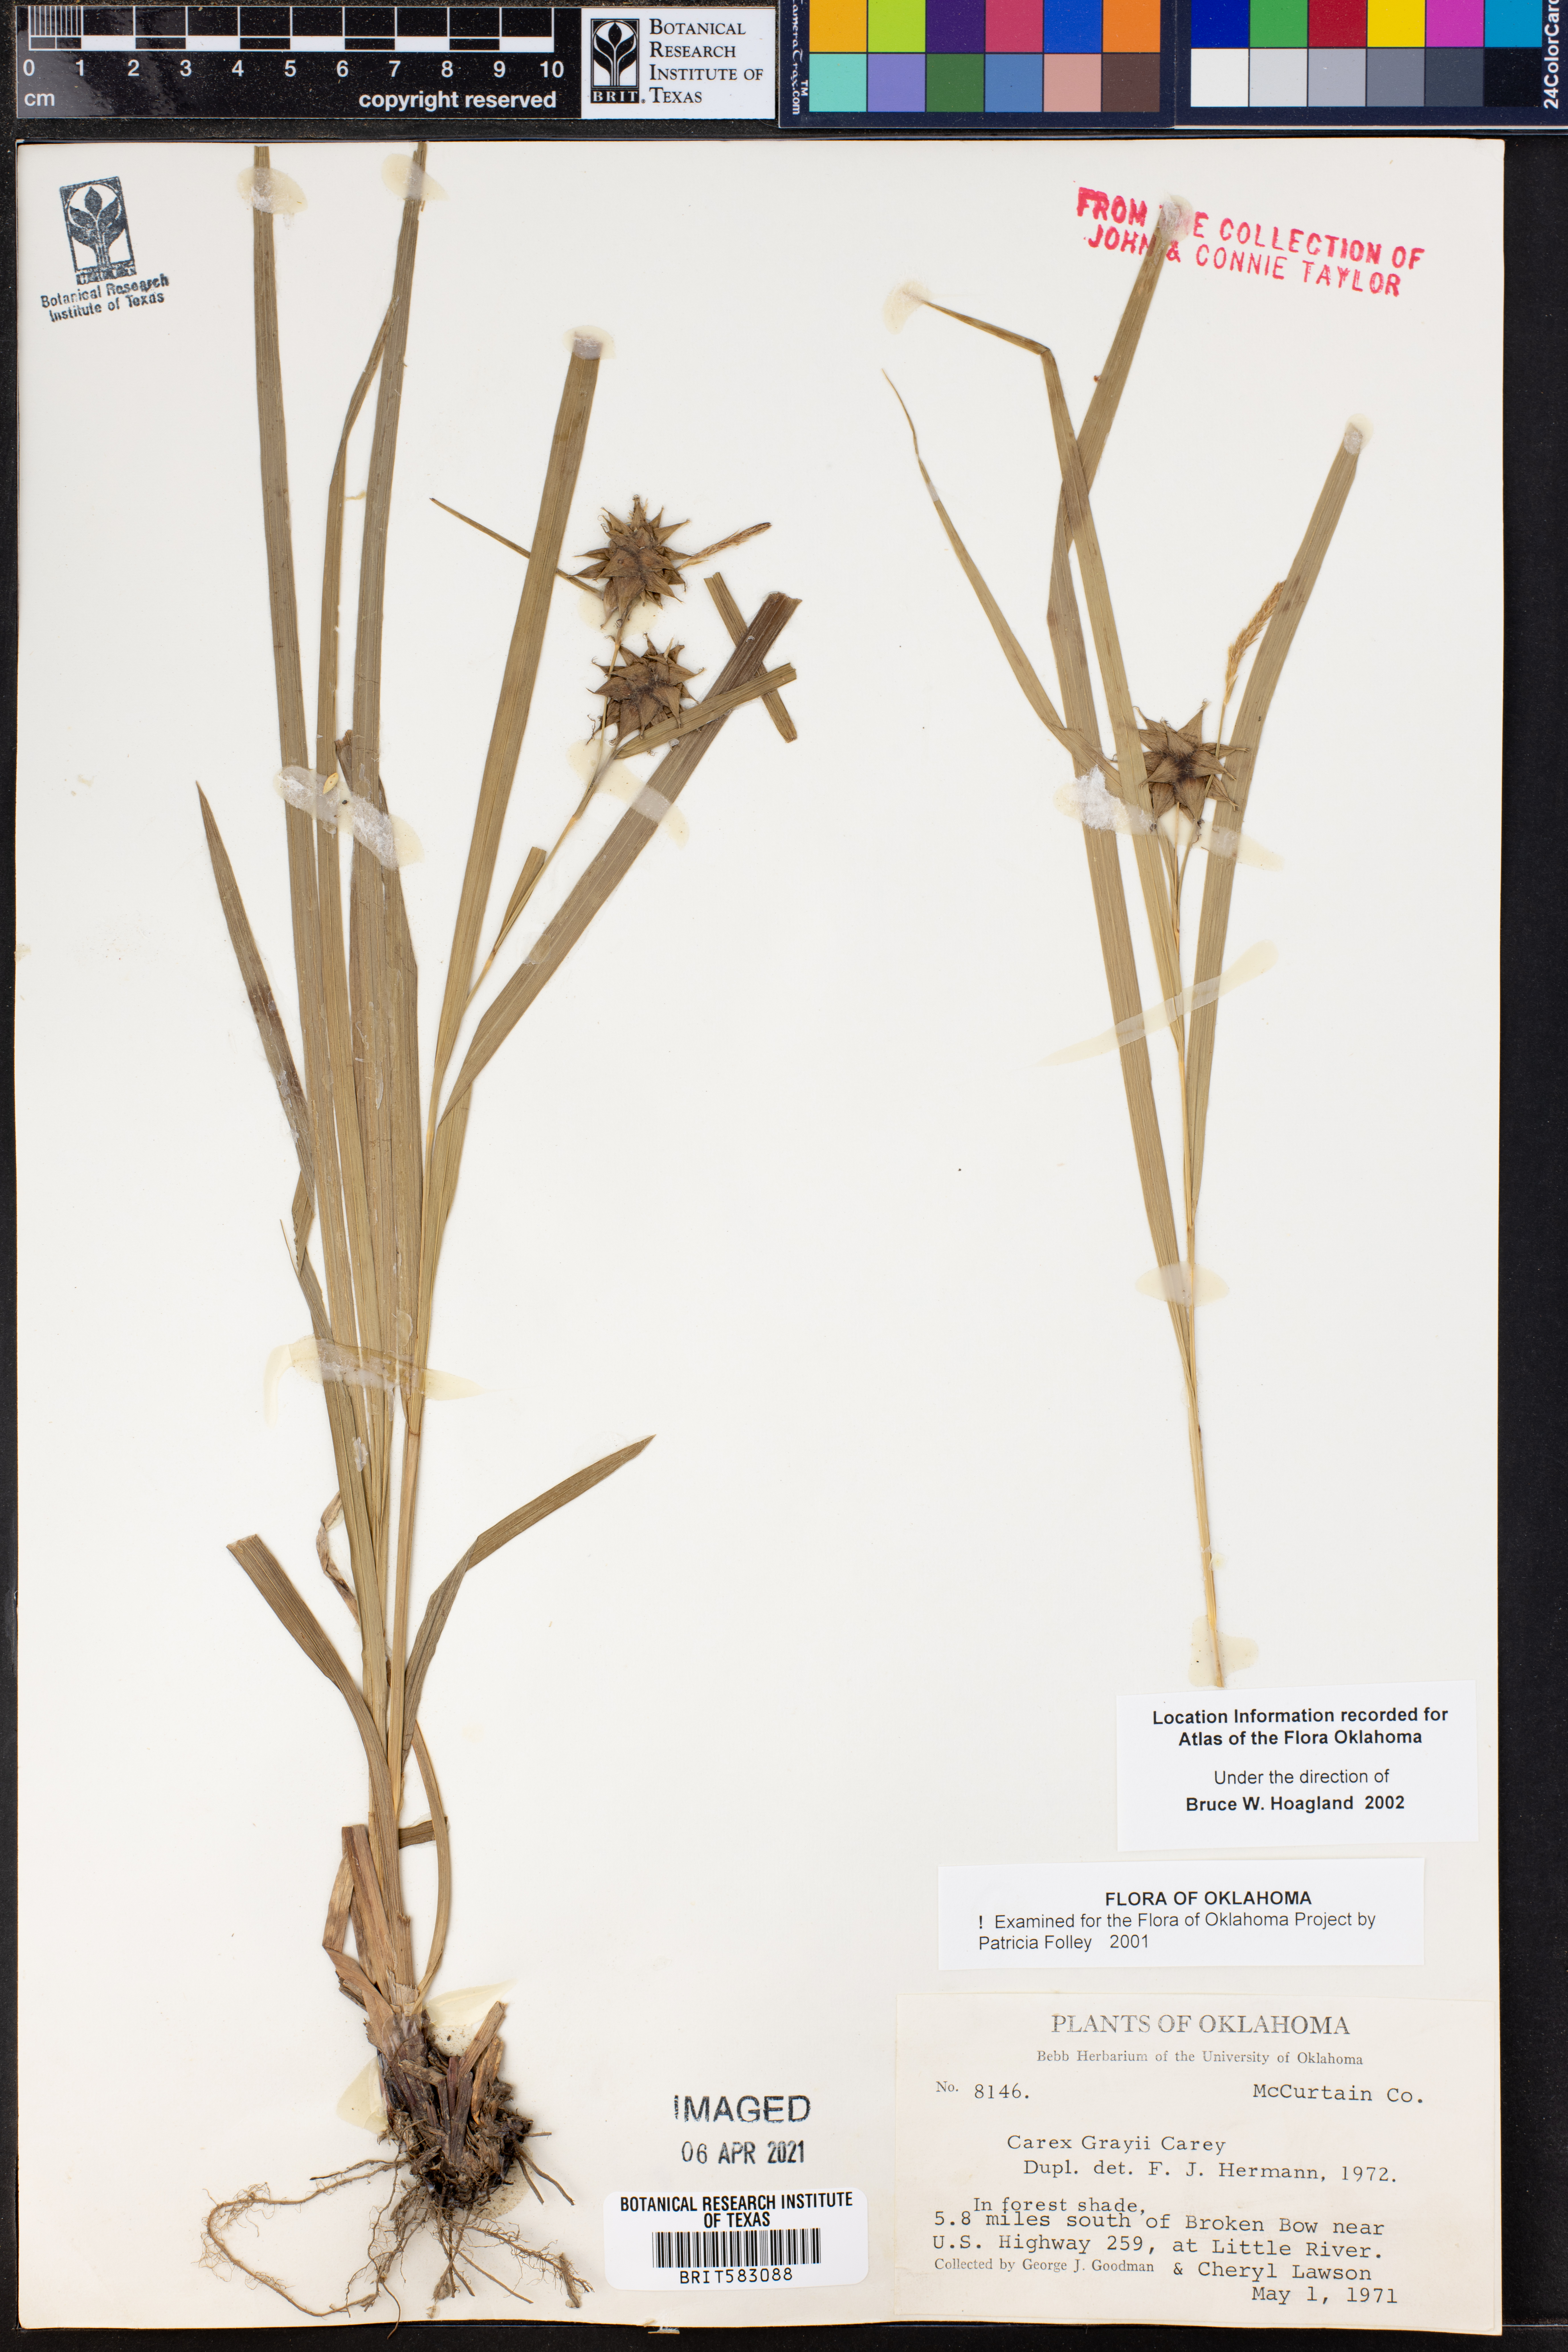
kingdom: Plantae
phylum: Tracheophyta
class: Liliopsida
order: Poales
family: Cyperaceae
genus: Carex
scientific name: Carex grayi
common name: Asa gray's sedge
